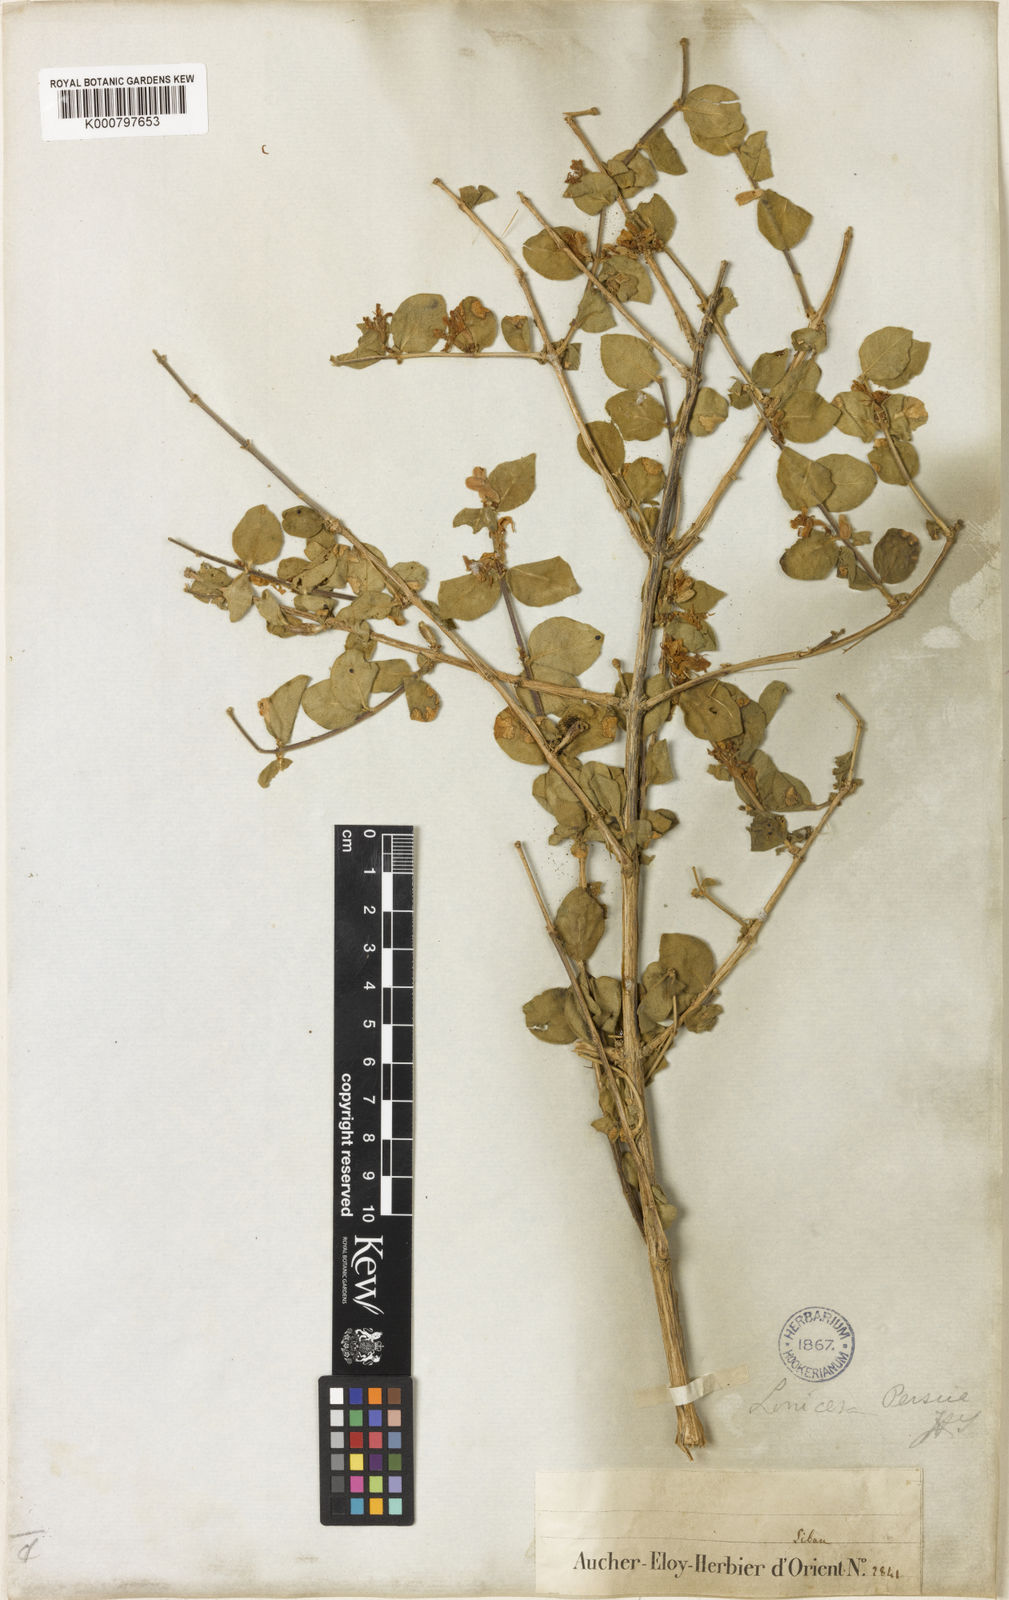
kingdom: Plantae
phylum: Tracheophyta
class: Magnoliopsida
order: Dipsacales
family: Caprifoliaceae
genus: Lonicera
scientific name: Lonicera nummulariifolia
